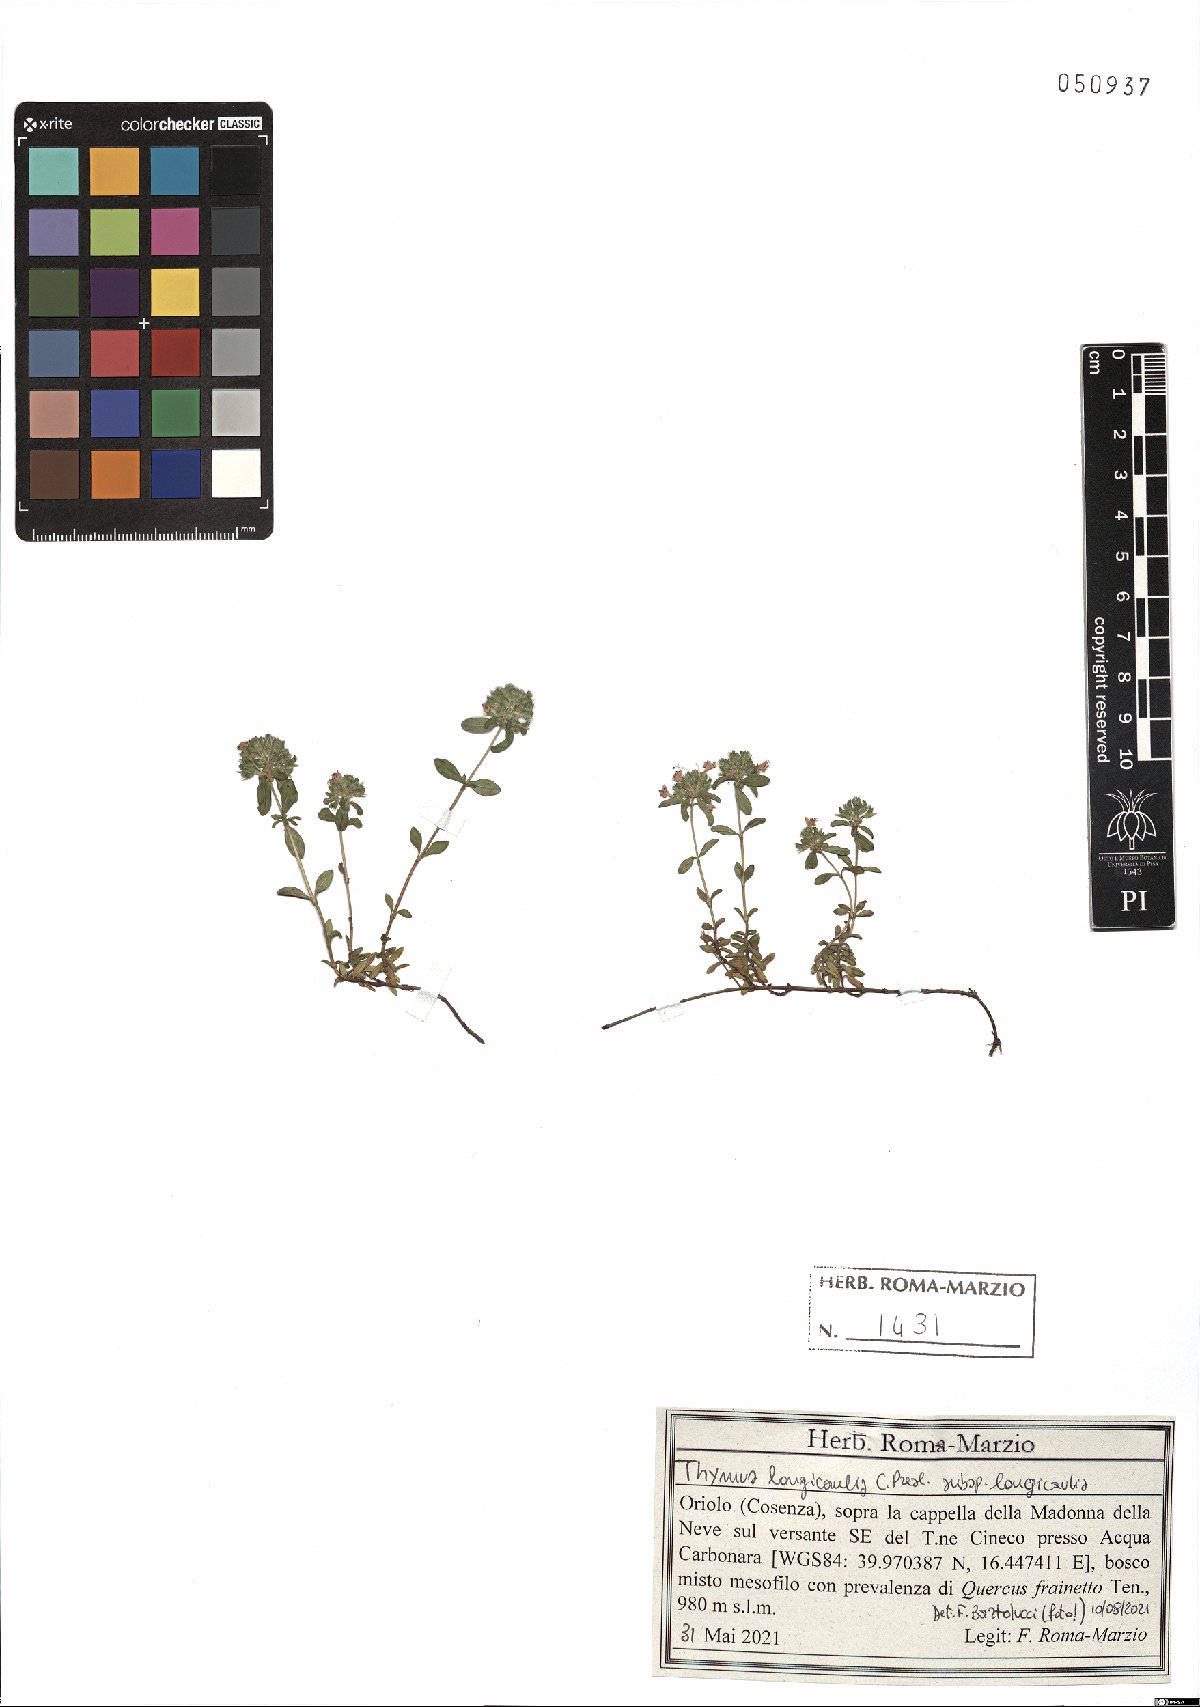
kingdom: Plantae
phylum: Tracheophyta
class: Magnoliopsida
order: Lamiales
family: Lamiaceae
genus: Thymus
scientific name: Thymus longicaulis
